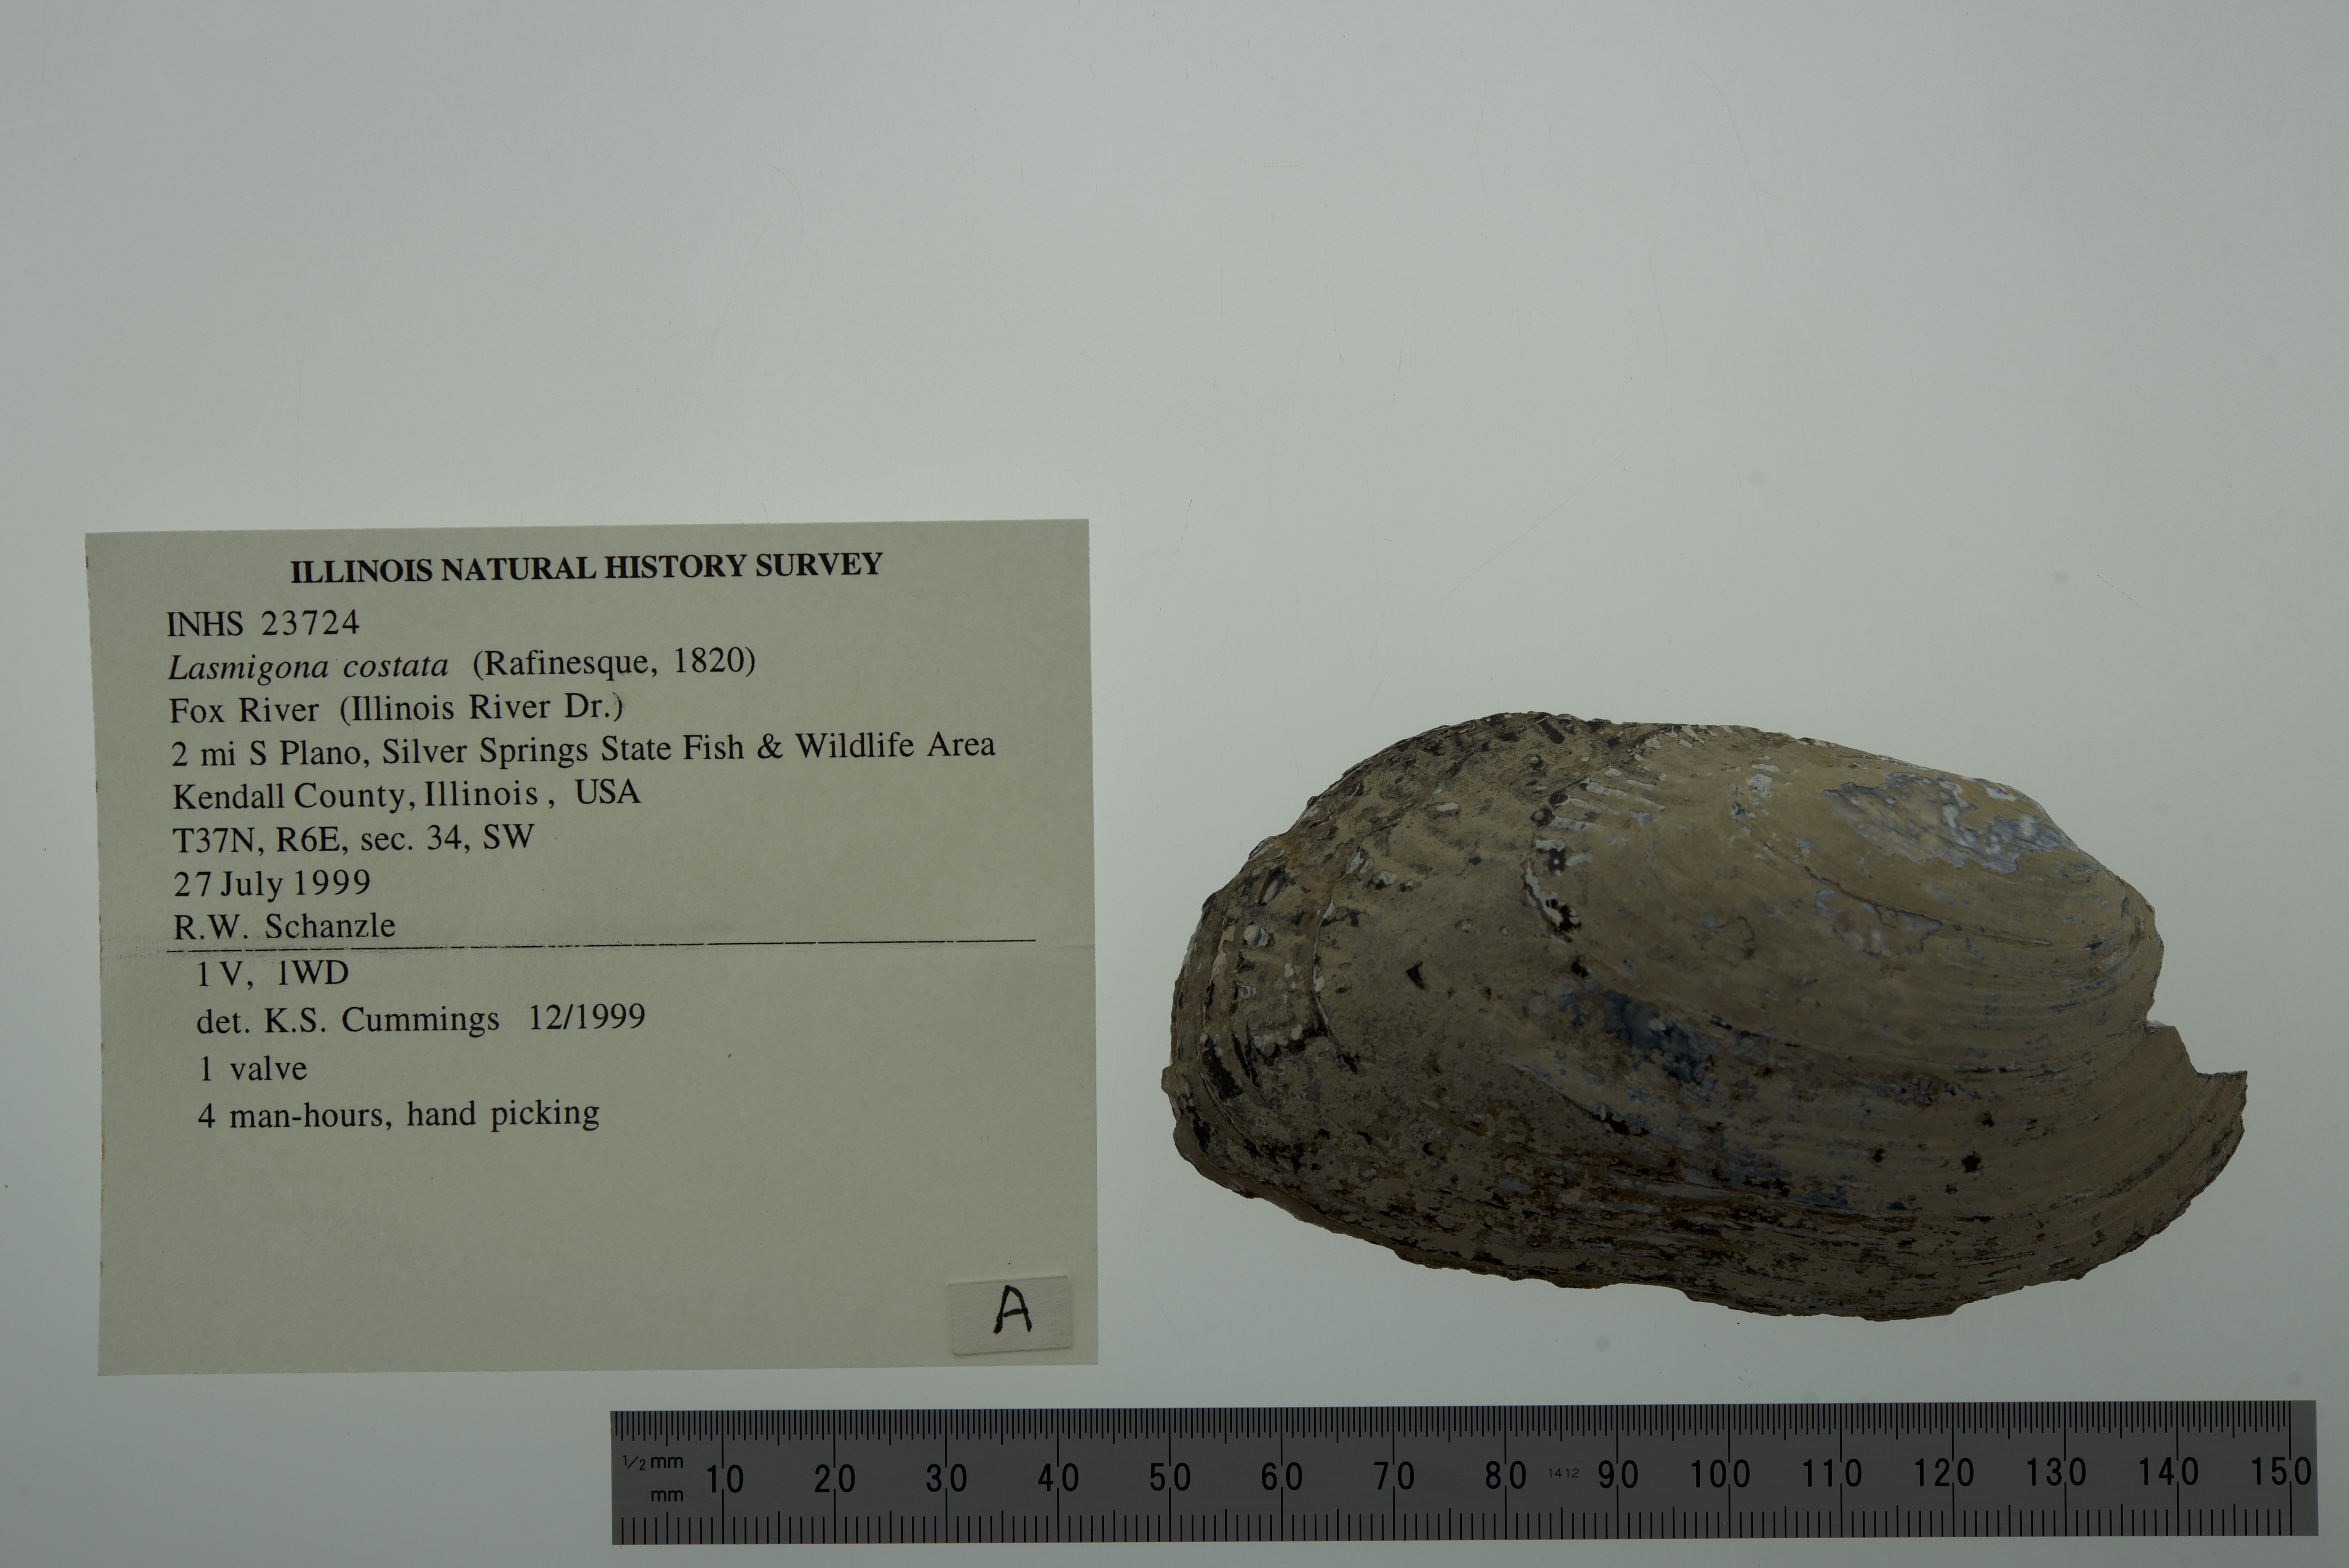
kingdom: Animalia
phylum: Mollusca
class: Bivalvia
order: Unionida
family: Unionidae
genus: Lasmigona
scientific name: Lasmigona costata
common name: Flutedshell
